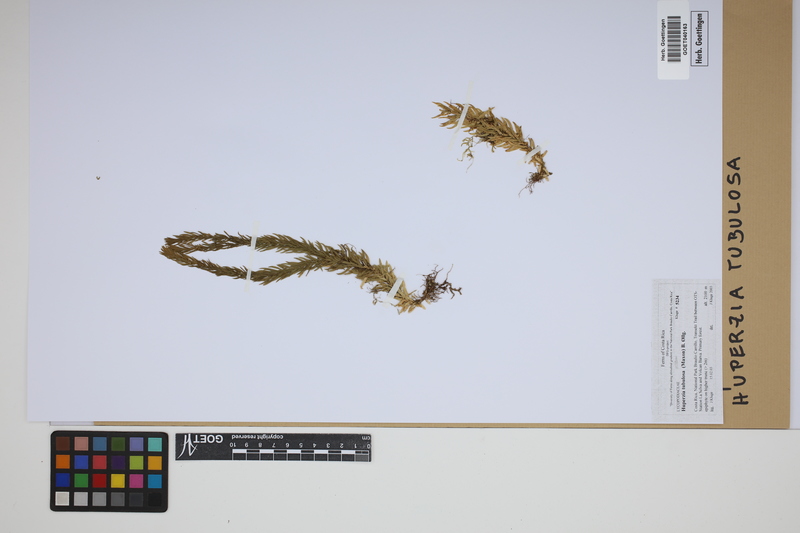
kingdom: Plantae
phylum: Tracheophyta
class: Lycopodiopsida
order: Lycopodiales
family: Lycopodiaceae
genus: Phlegmariurus
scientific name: Phlegmariurus tubulosus
